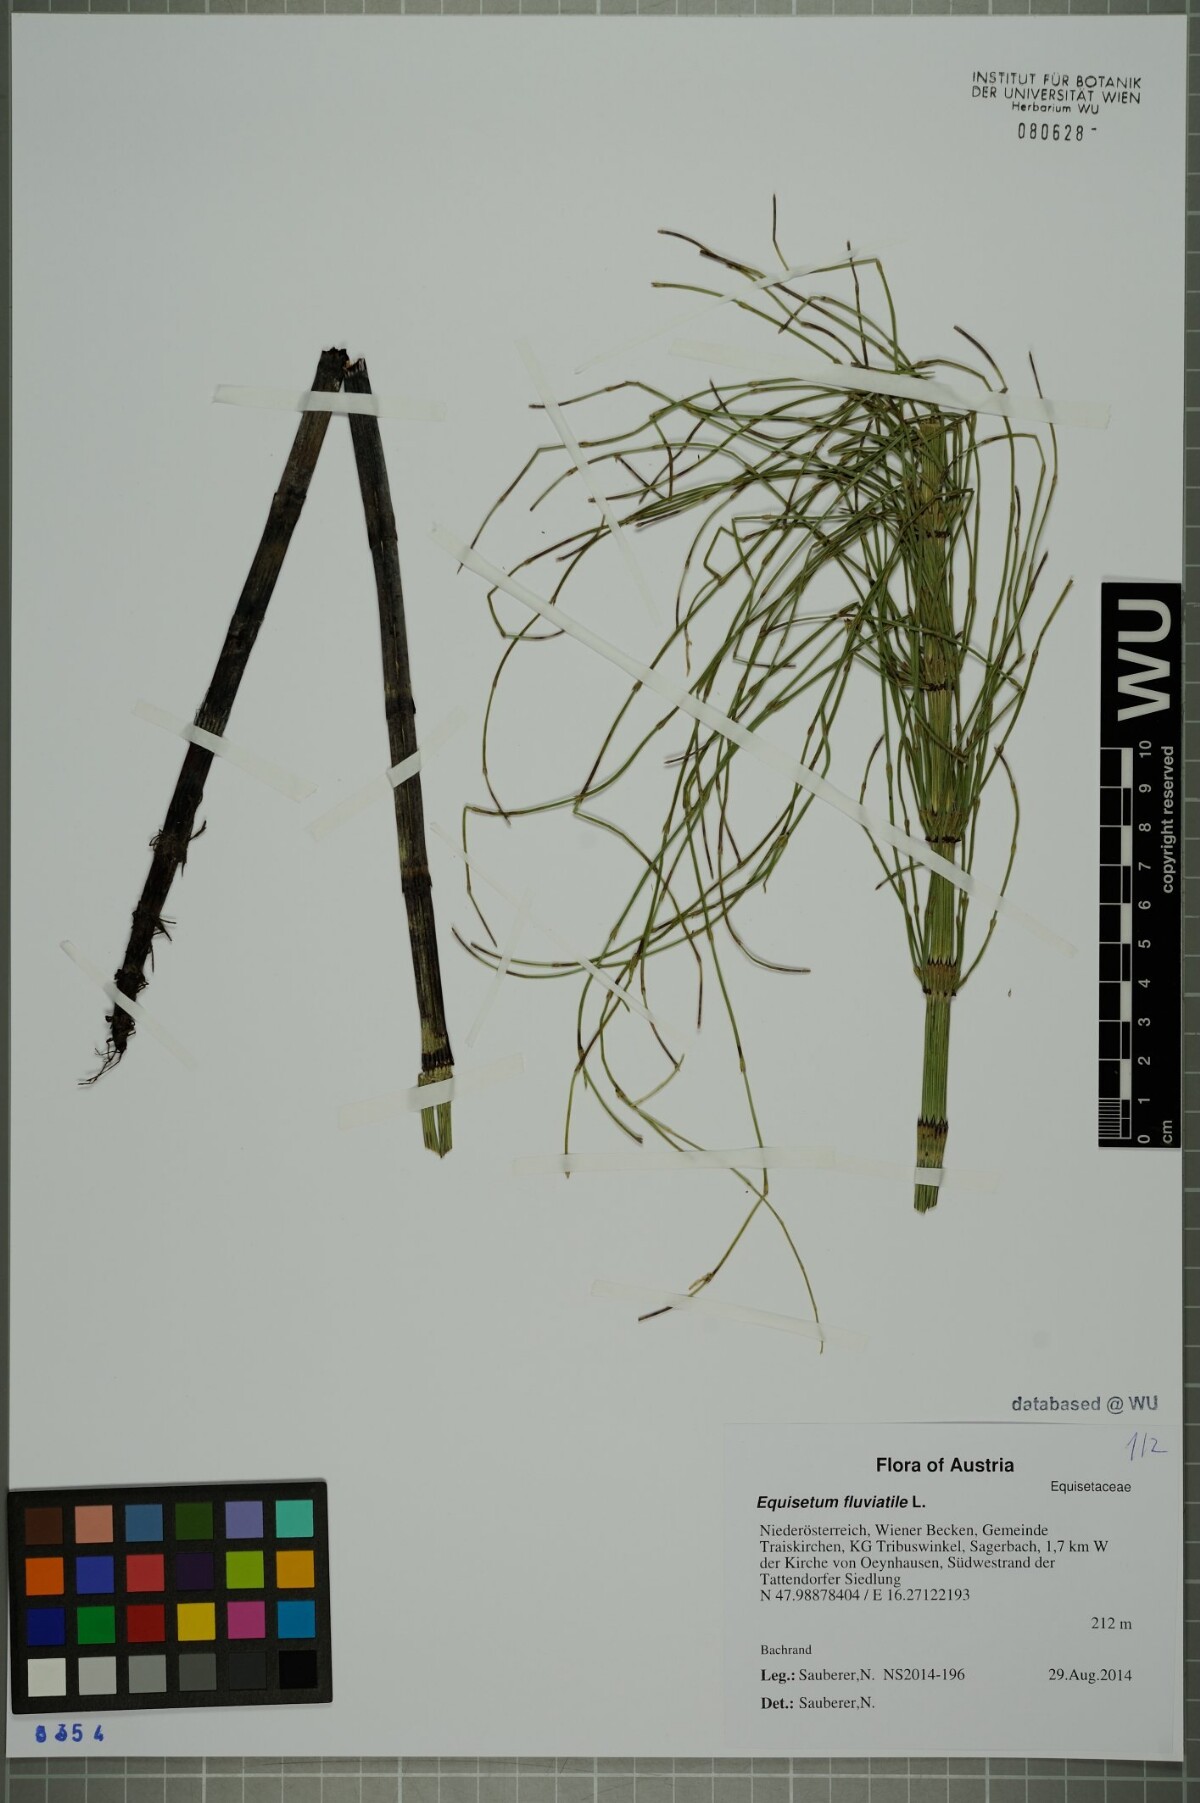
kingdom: Plantae
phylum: Tracheophyta
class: Polypodiopsida
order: Equisetales
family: Equisetaceae
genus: Equisetum
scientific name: Equisetum fluviatile
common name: Water horsetail
